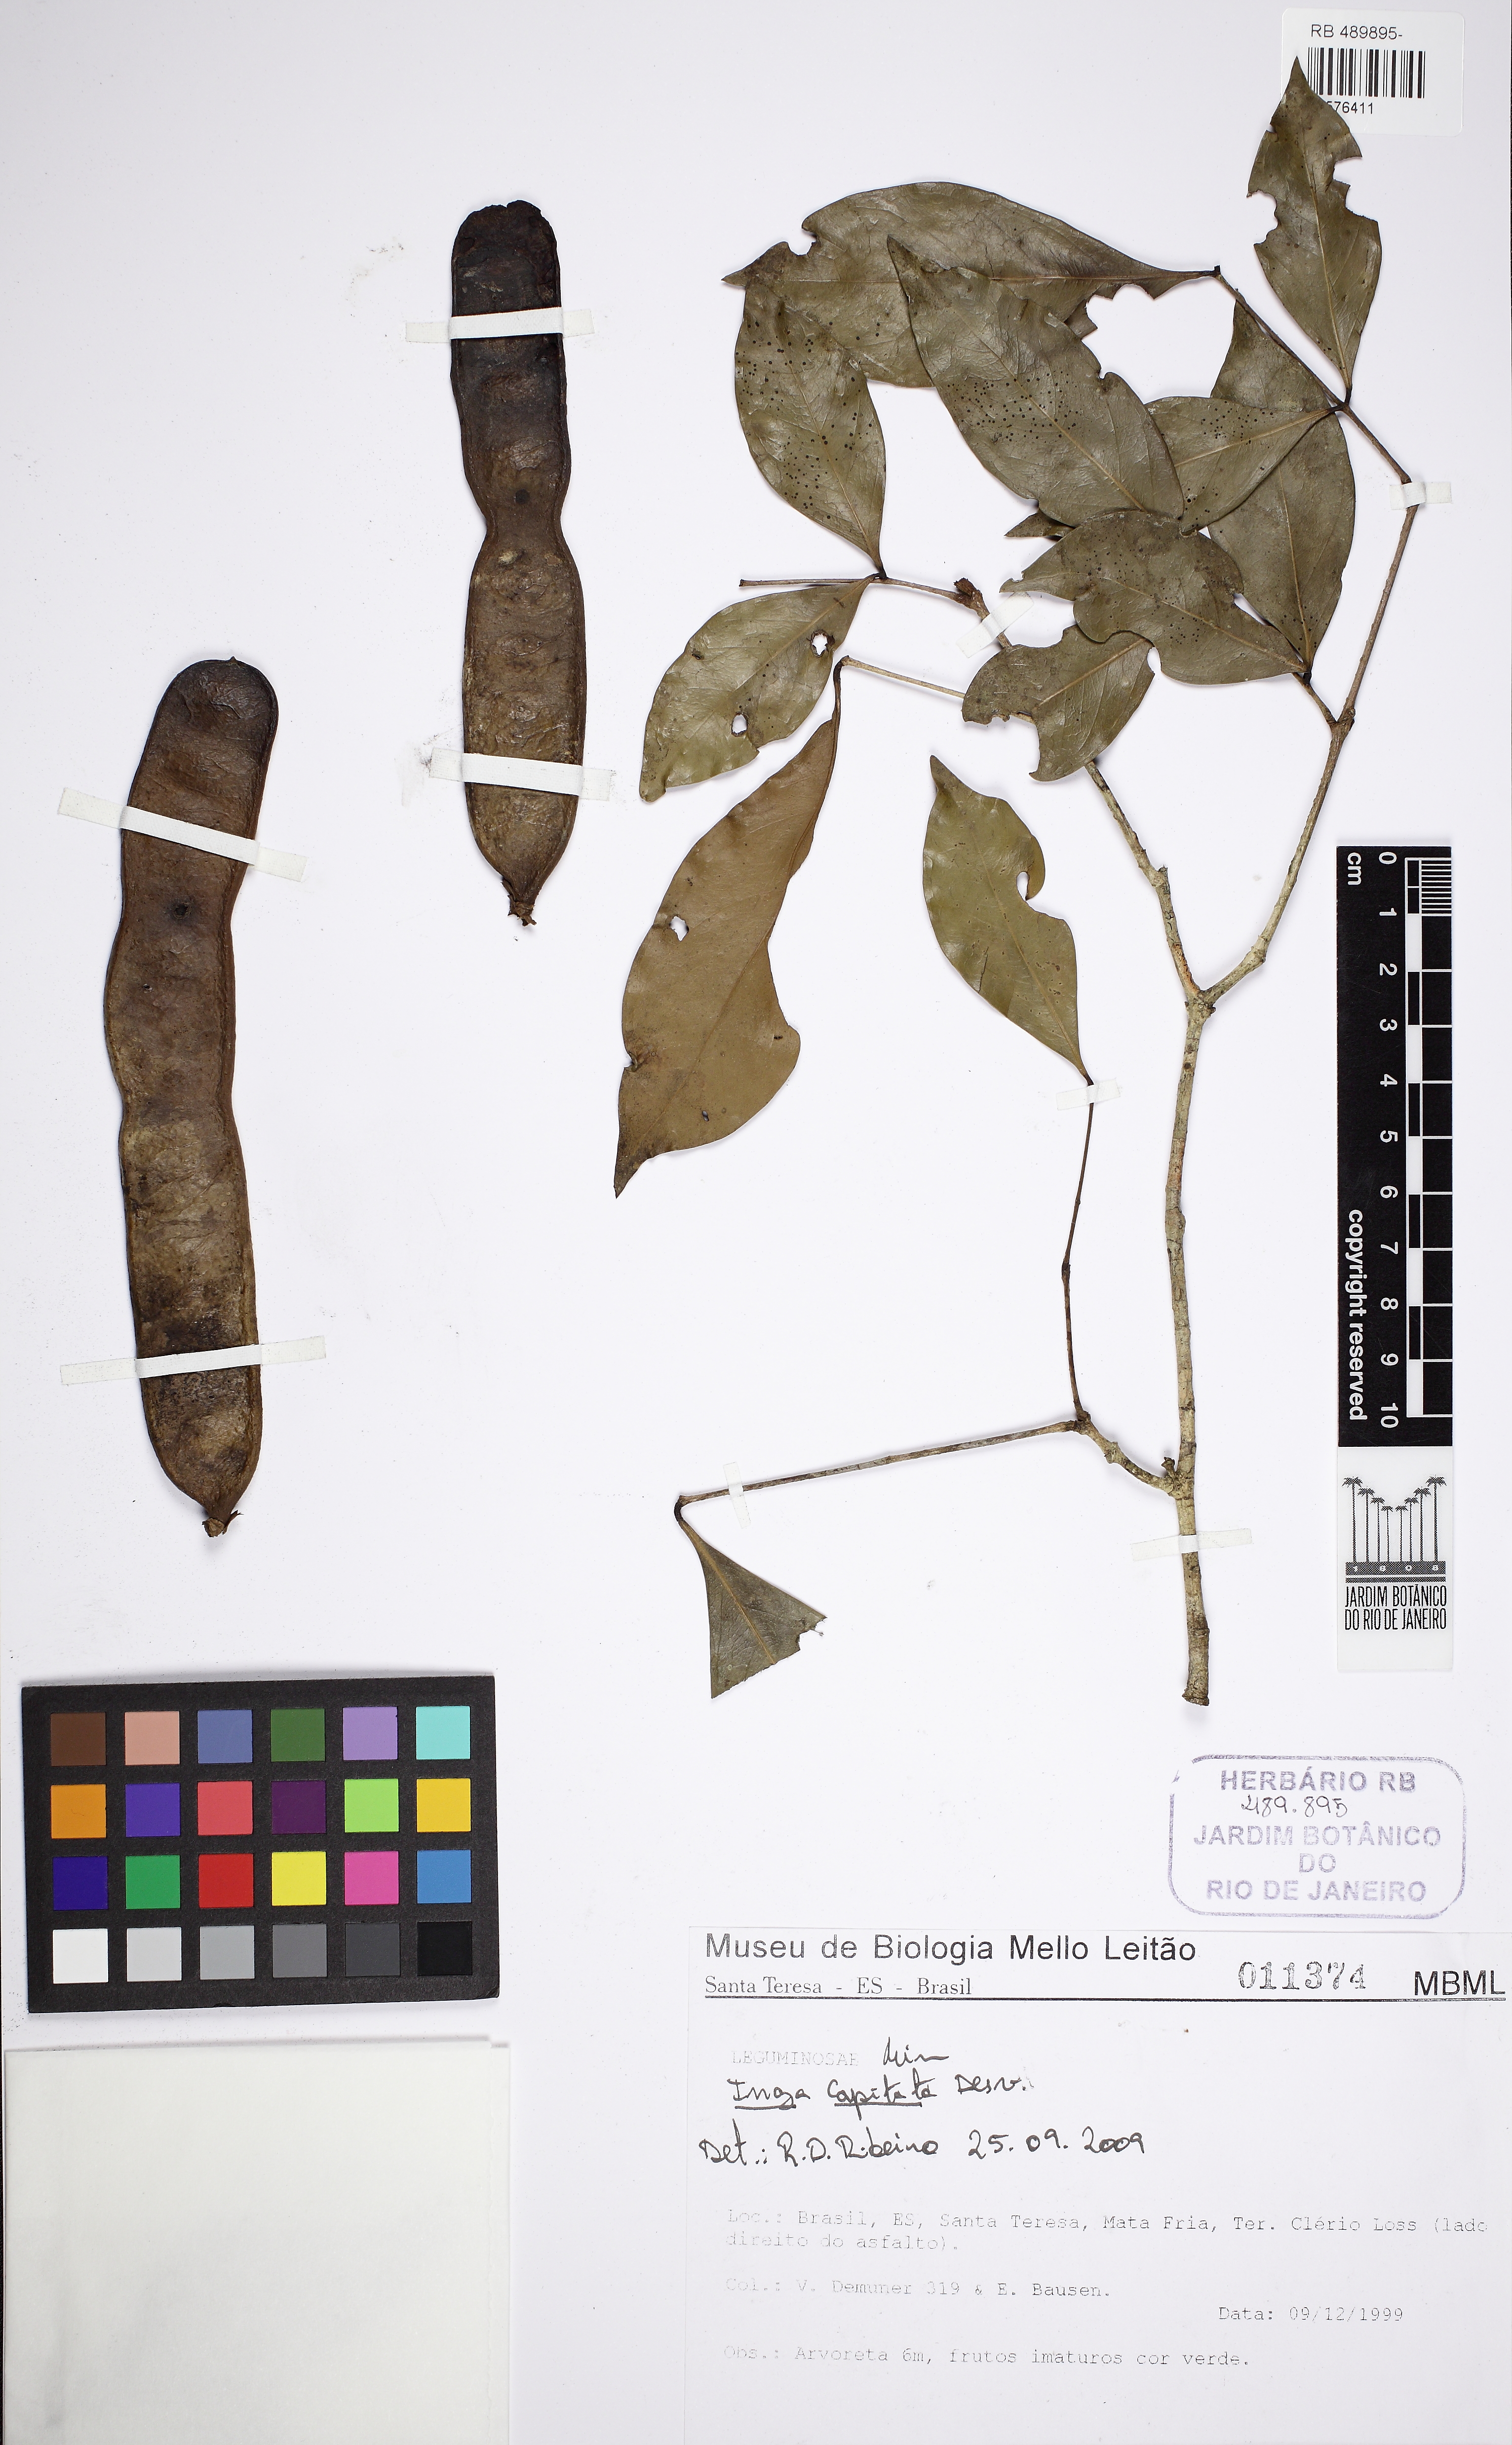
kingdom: Plantae
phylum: Tracheophyta
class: Magnoliopsida
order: Fabales
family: Fabaceae
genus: Inga
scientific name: Inga capitata
